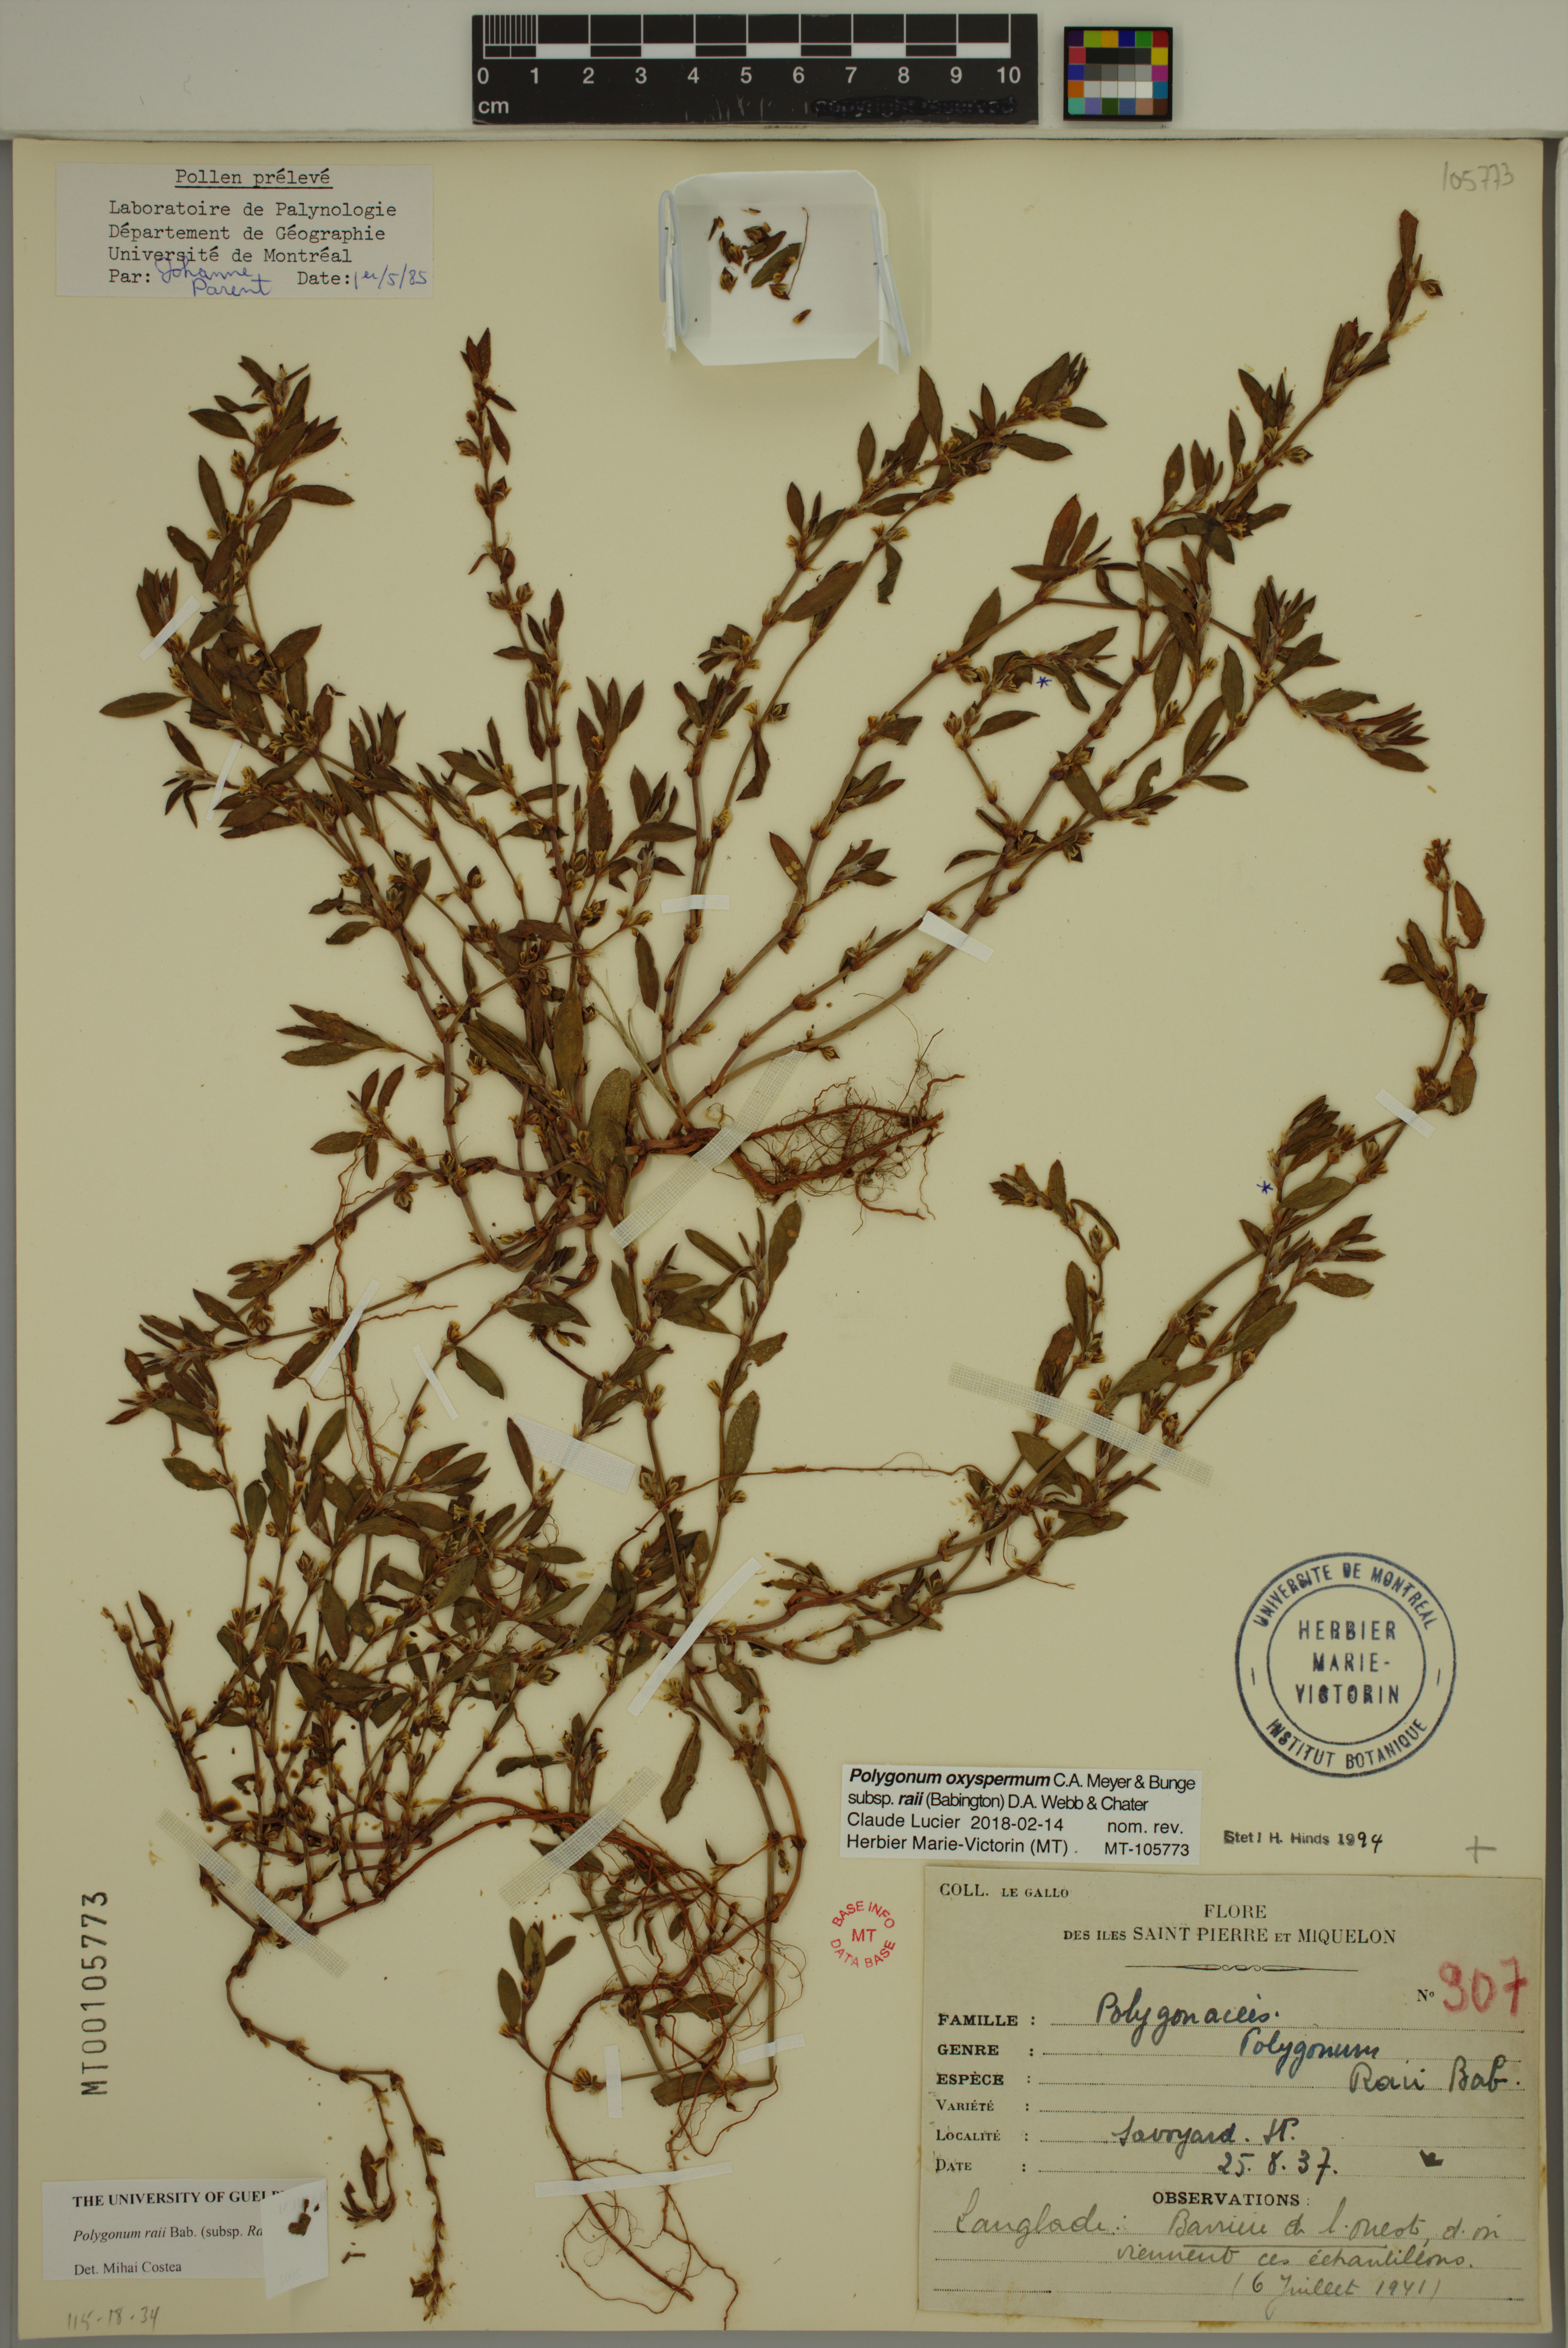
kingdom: Plantae
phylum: Tracheophyta
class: Magnoliopsida
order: Caryophyllales
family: Polygonaceae
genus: Polygonum
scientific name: Polygonum raii
